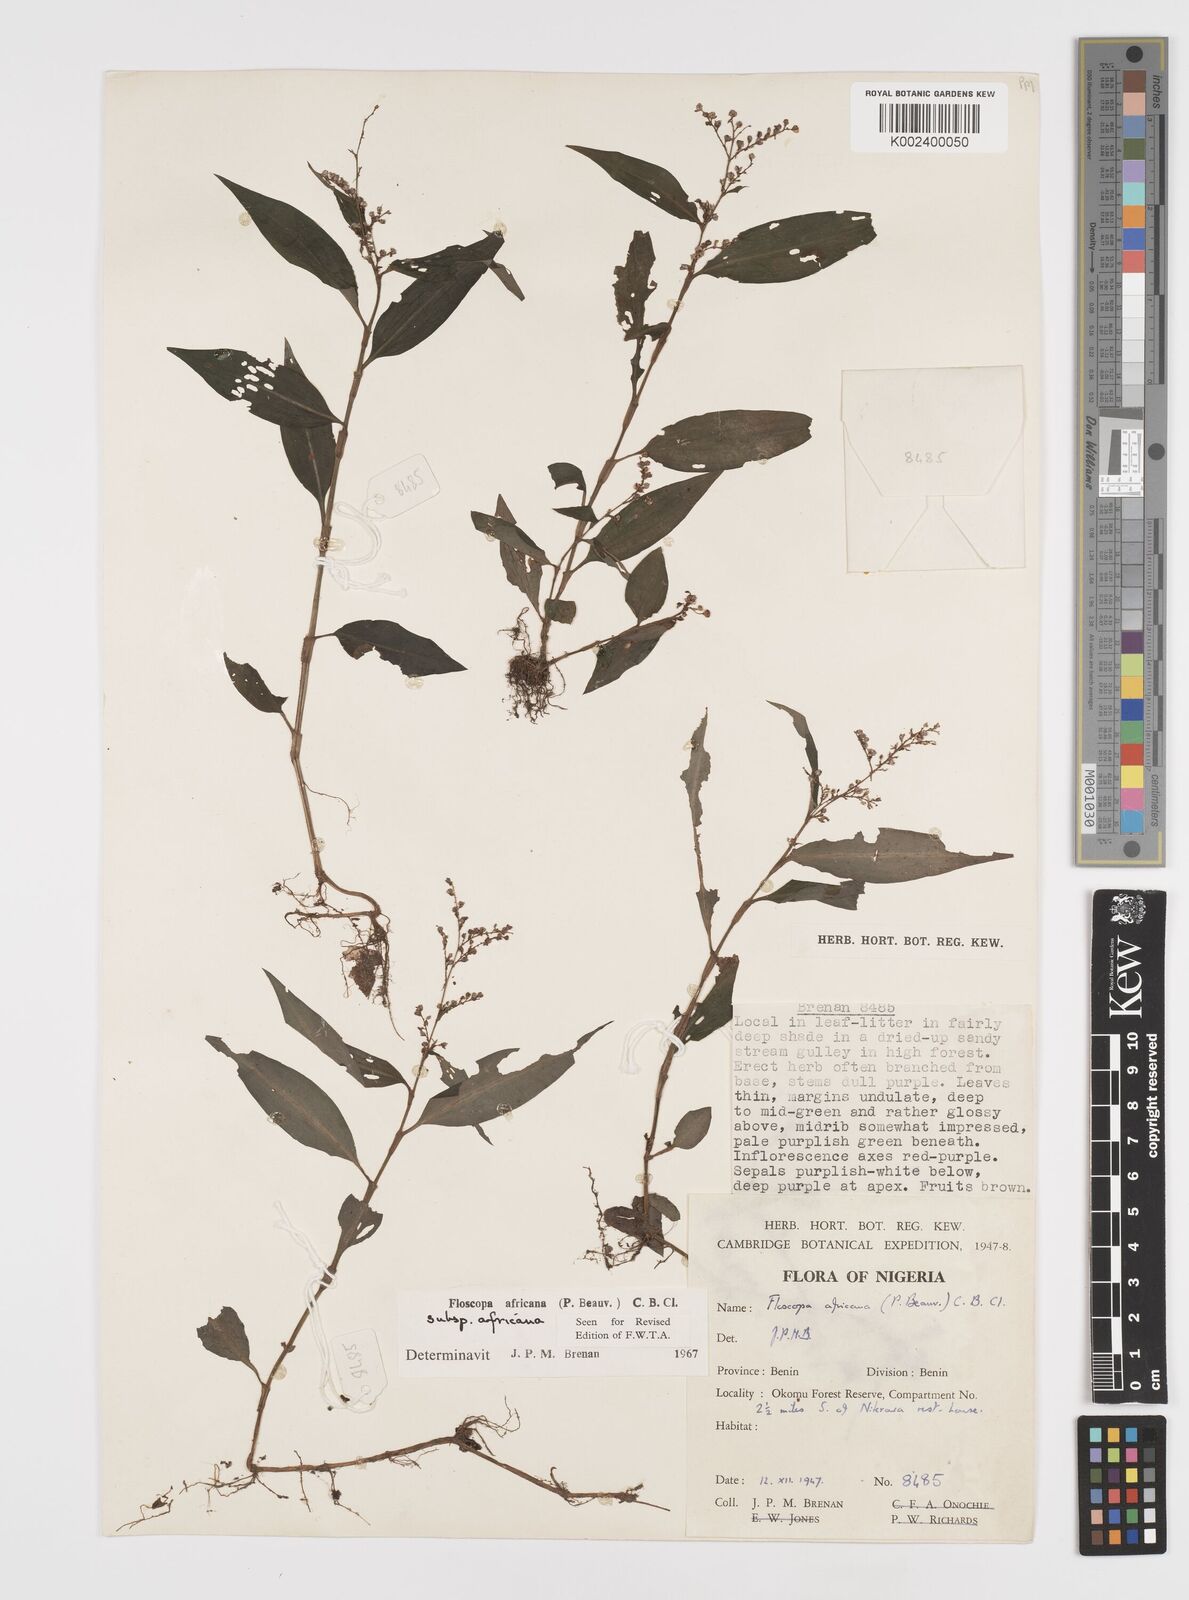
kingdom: Plantae
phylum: Tracheophyta
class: Liliopsida
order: Commelinales
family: Commelinaceae
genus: Floscopa
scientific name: Floscopa africana
